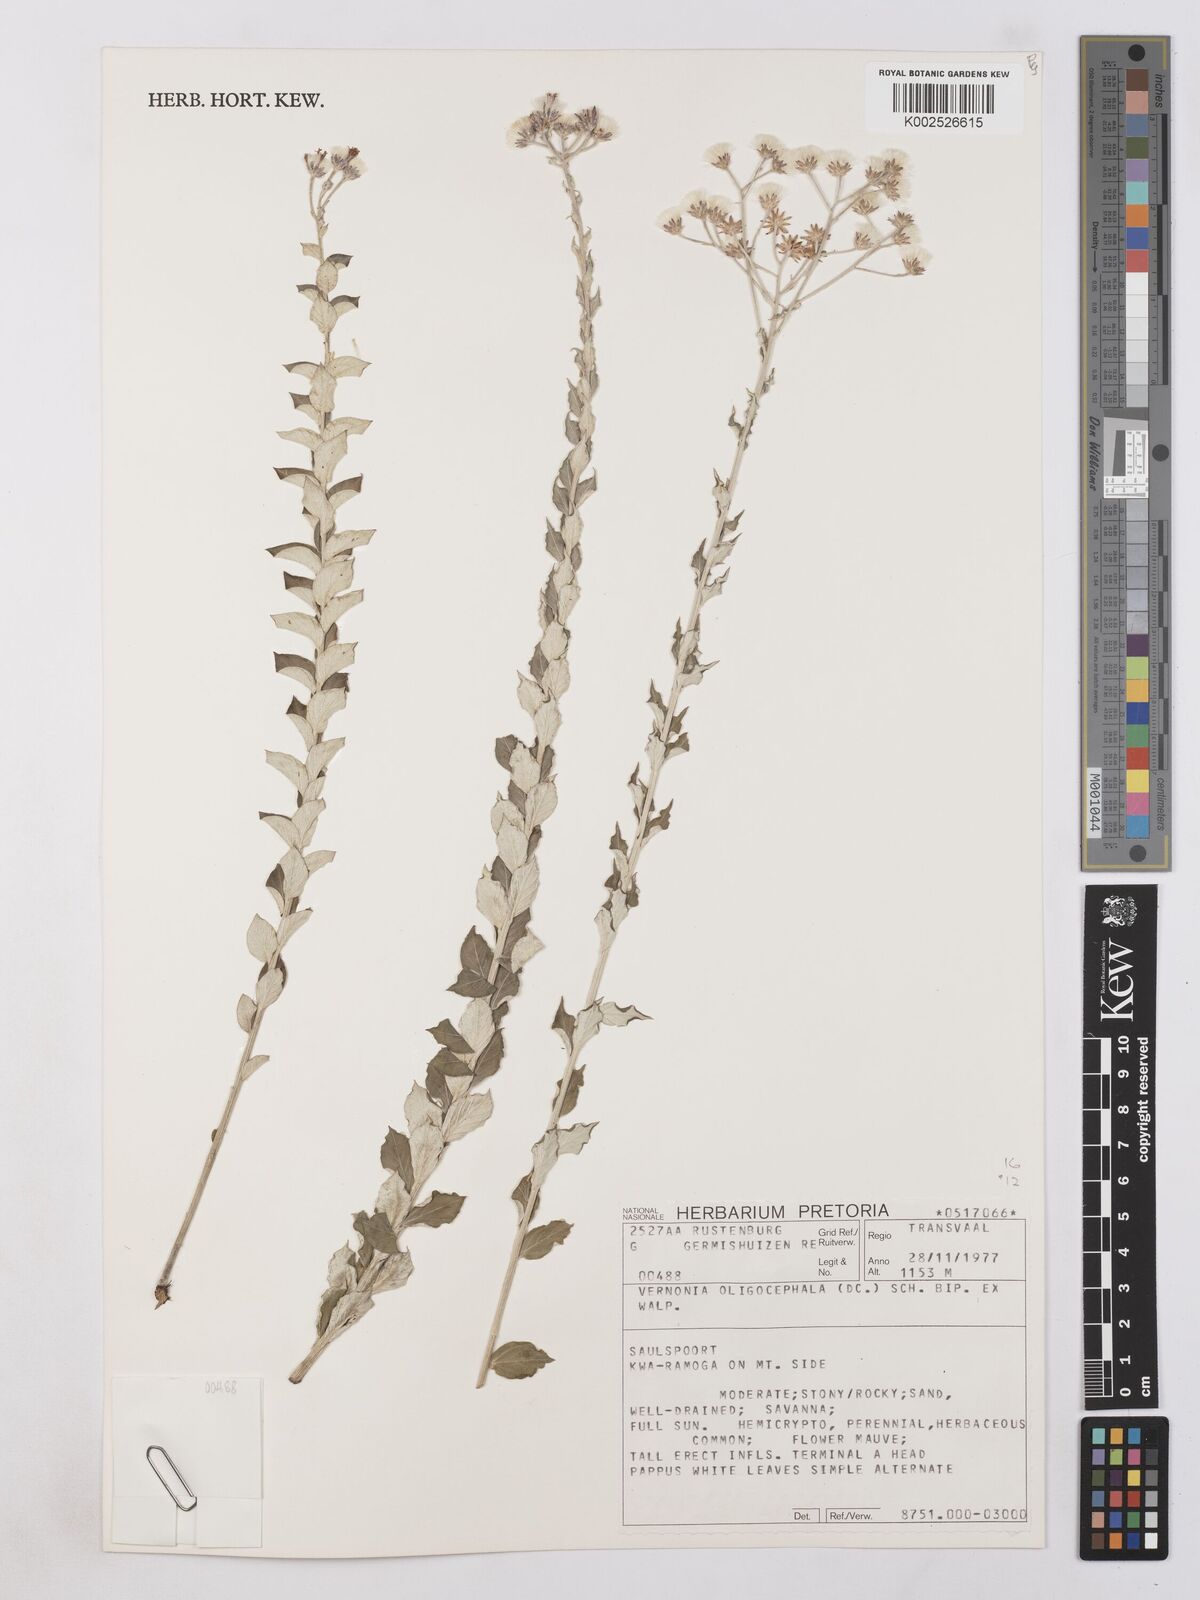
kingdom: Plantae
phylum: Tracheophyta
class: Magnoliopsida
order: Asterales
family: Asteraceae
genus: Hilliardiella
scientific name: Hilliardiella oligocephala
